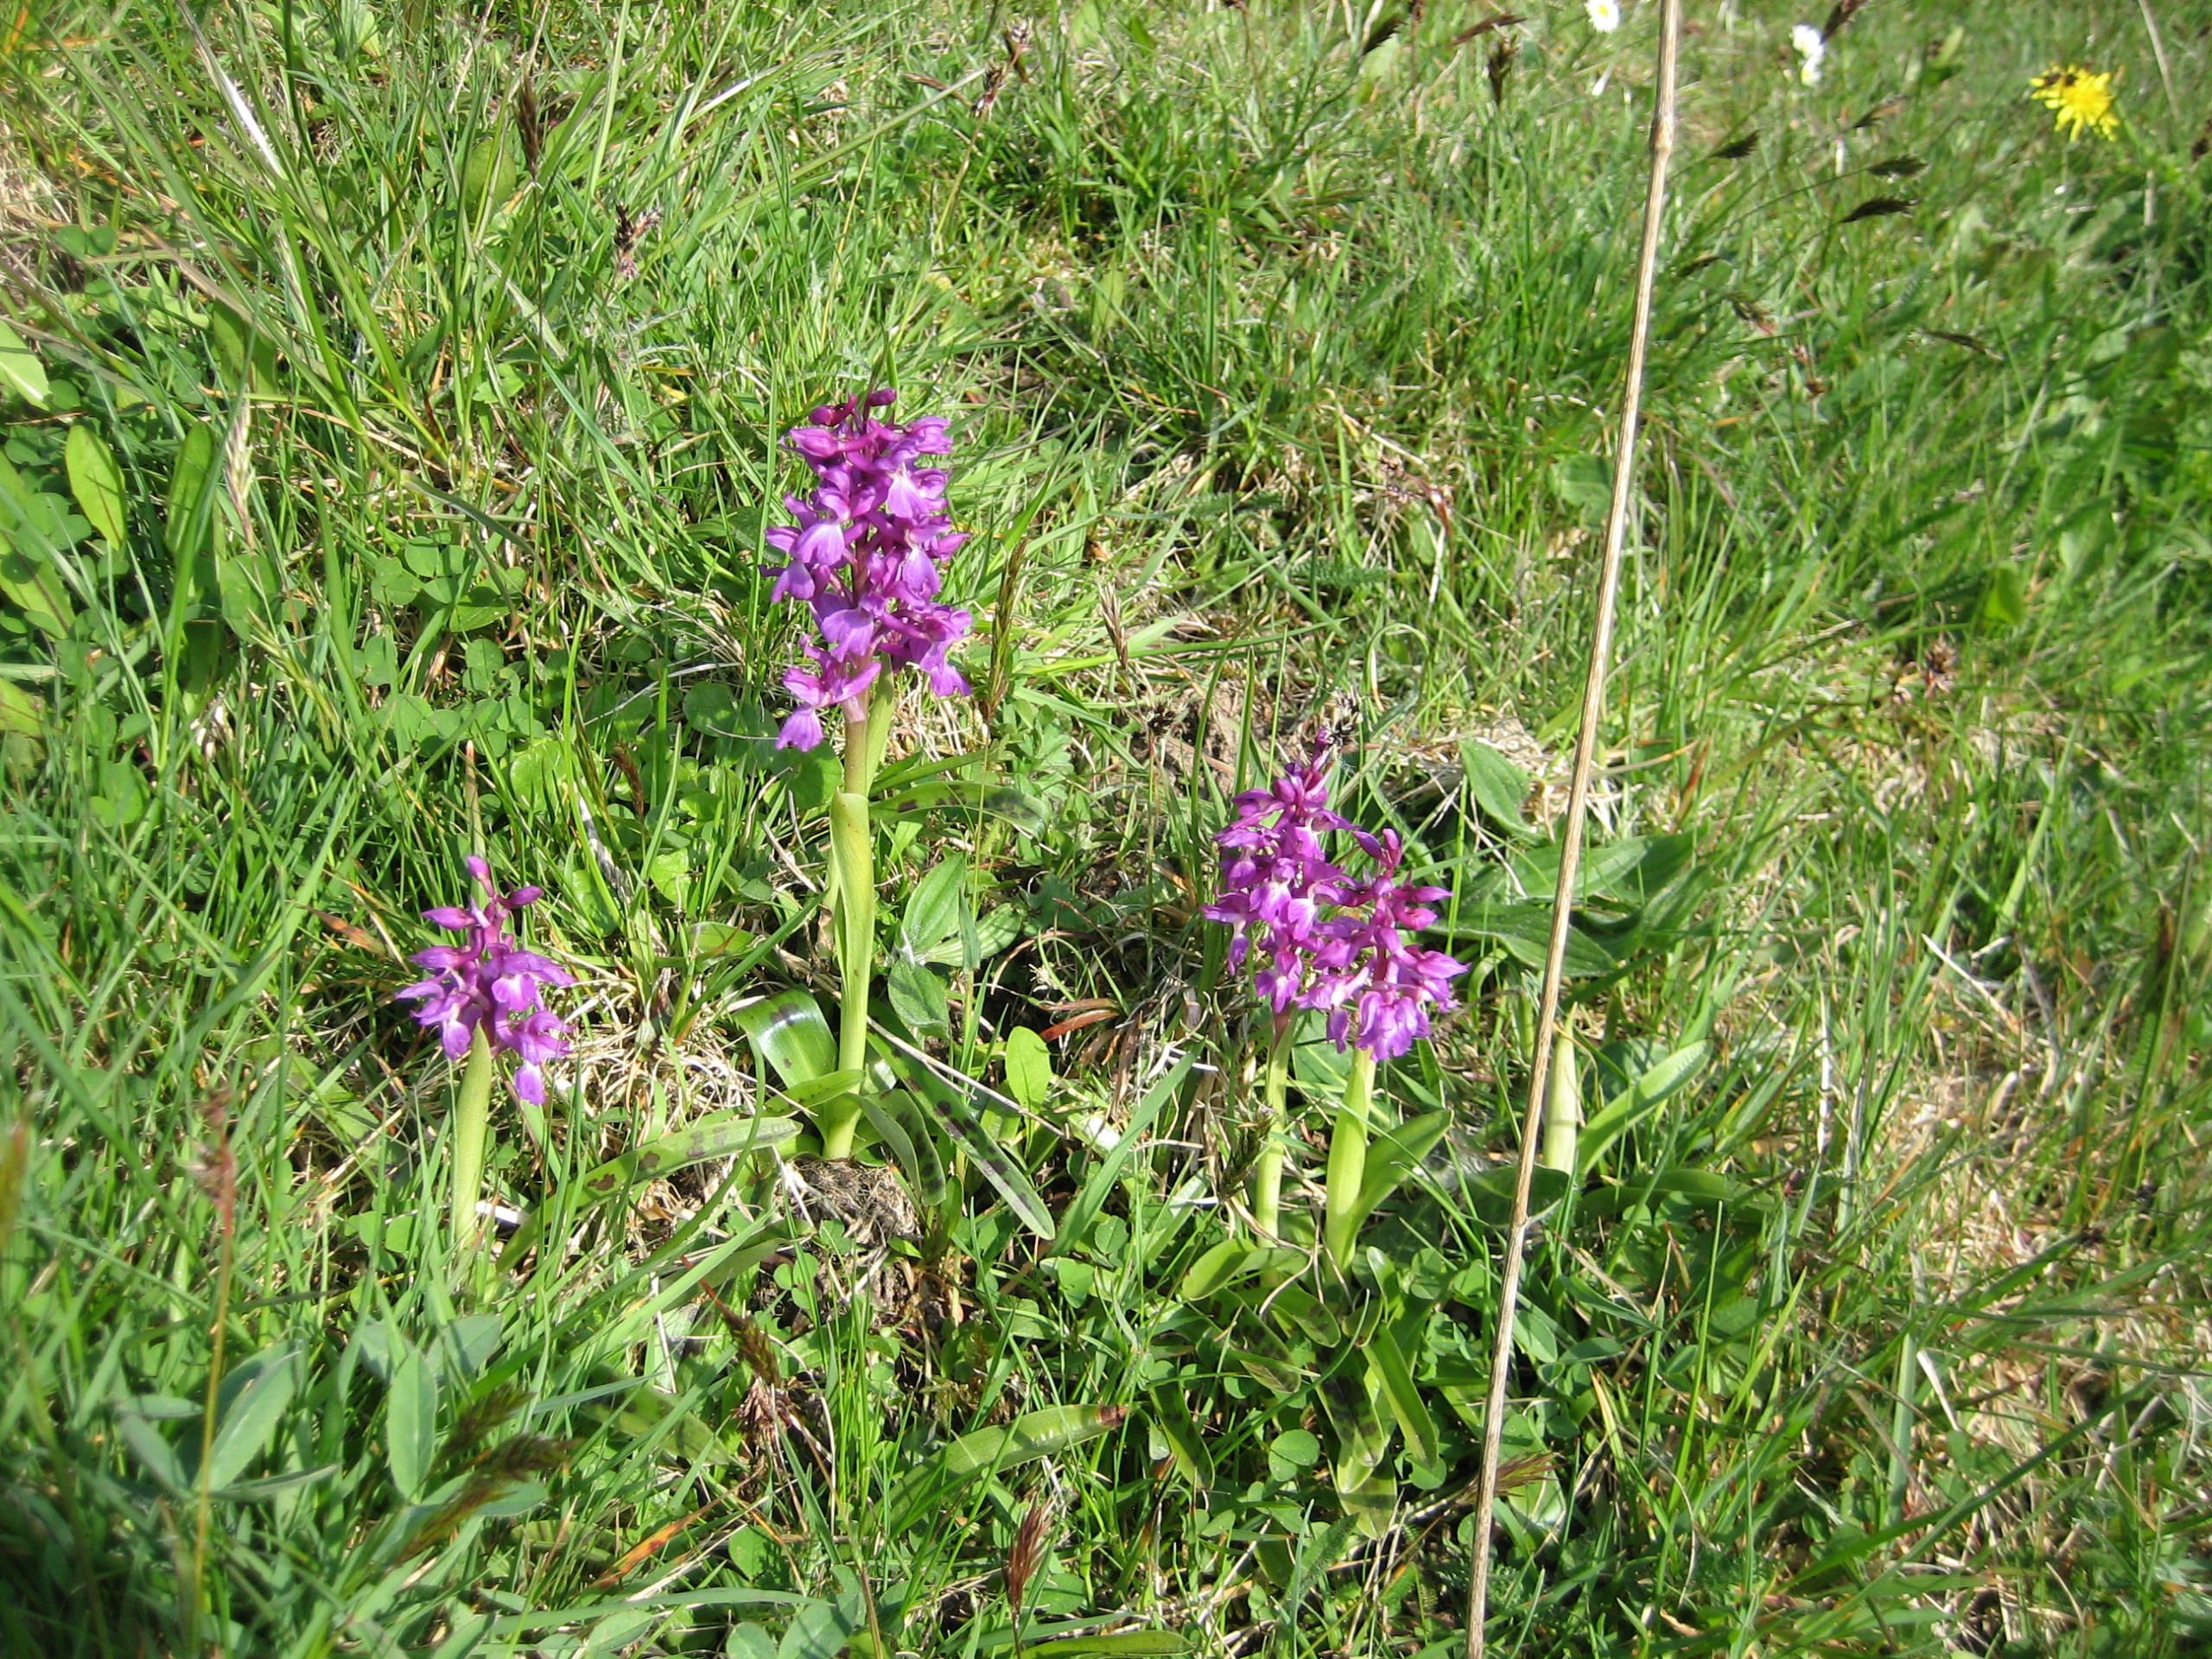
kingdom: Plantae
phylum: Tracheophyta
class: Liliopsida
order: Asparagales
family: Orchidaceae
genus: Orchis
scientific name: Orchis mascula
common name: Tyndakset gøgeurt
